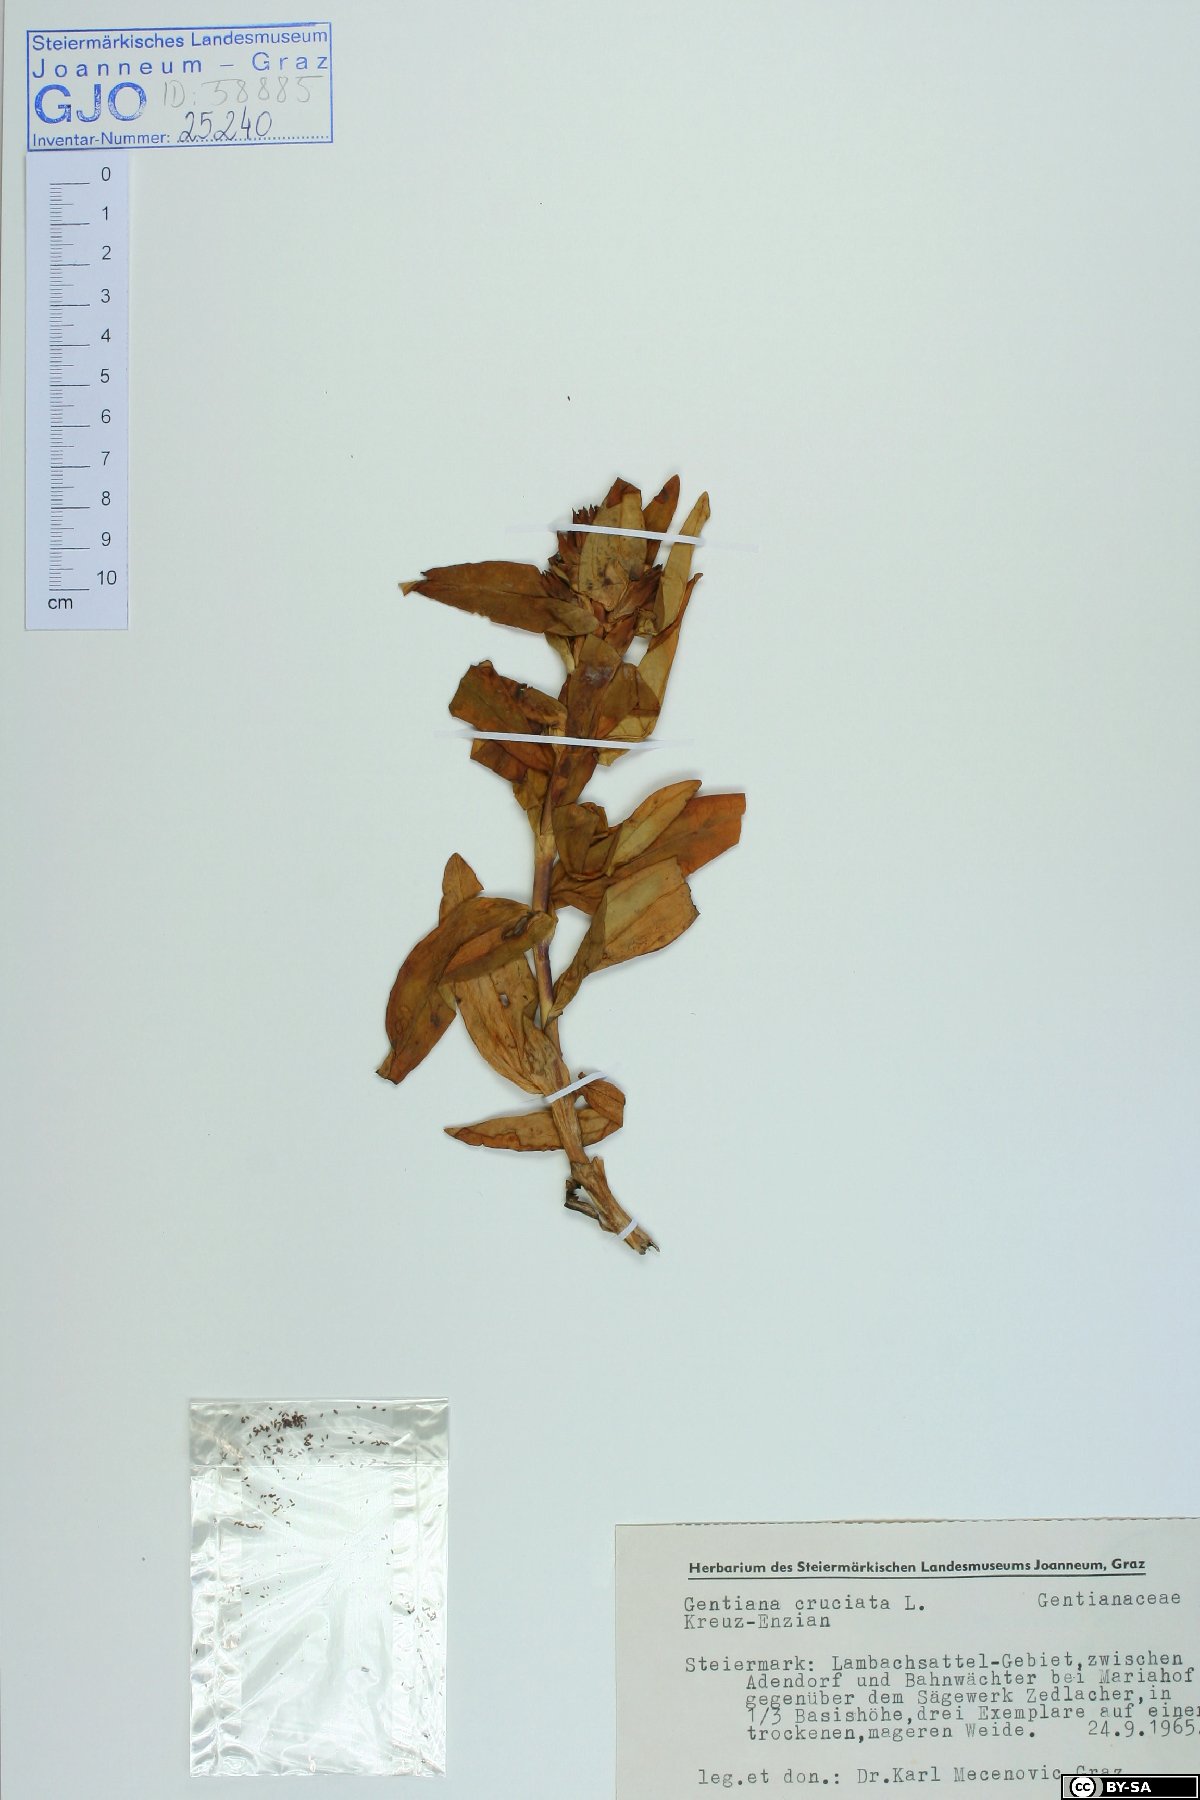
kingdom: Plantae
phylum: Tracheophyta
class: Magnoliopsida
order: Gentianales
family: Gentianaceae
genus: Gentiana
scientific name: Gentiana cruciata
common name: Cross gentian
